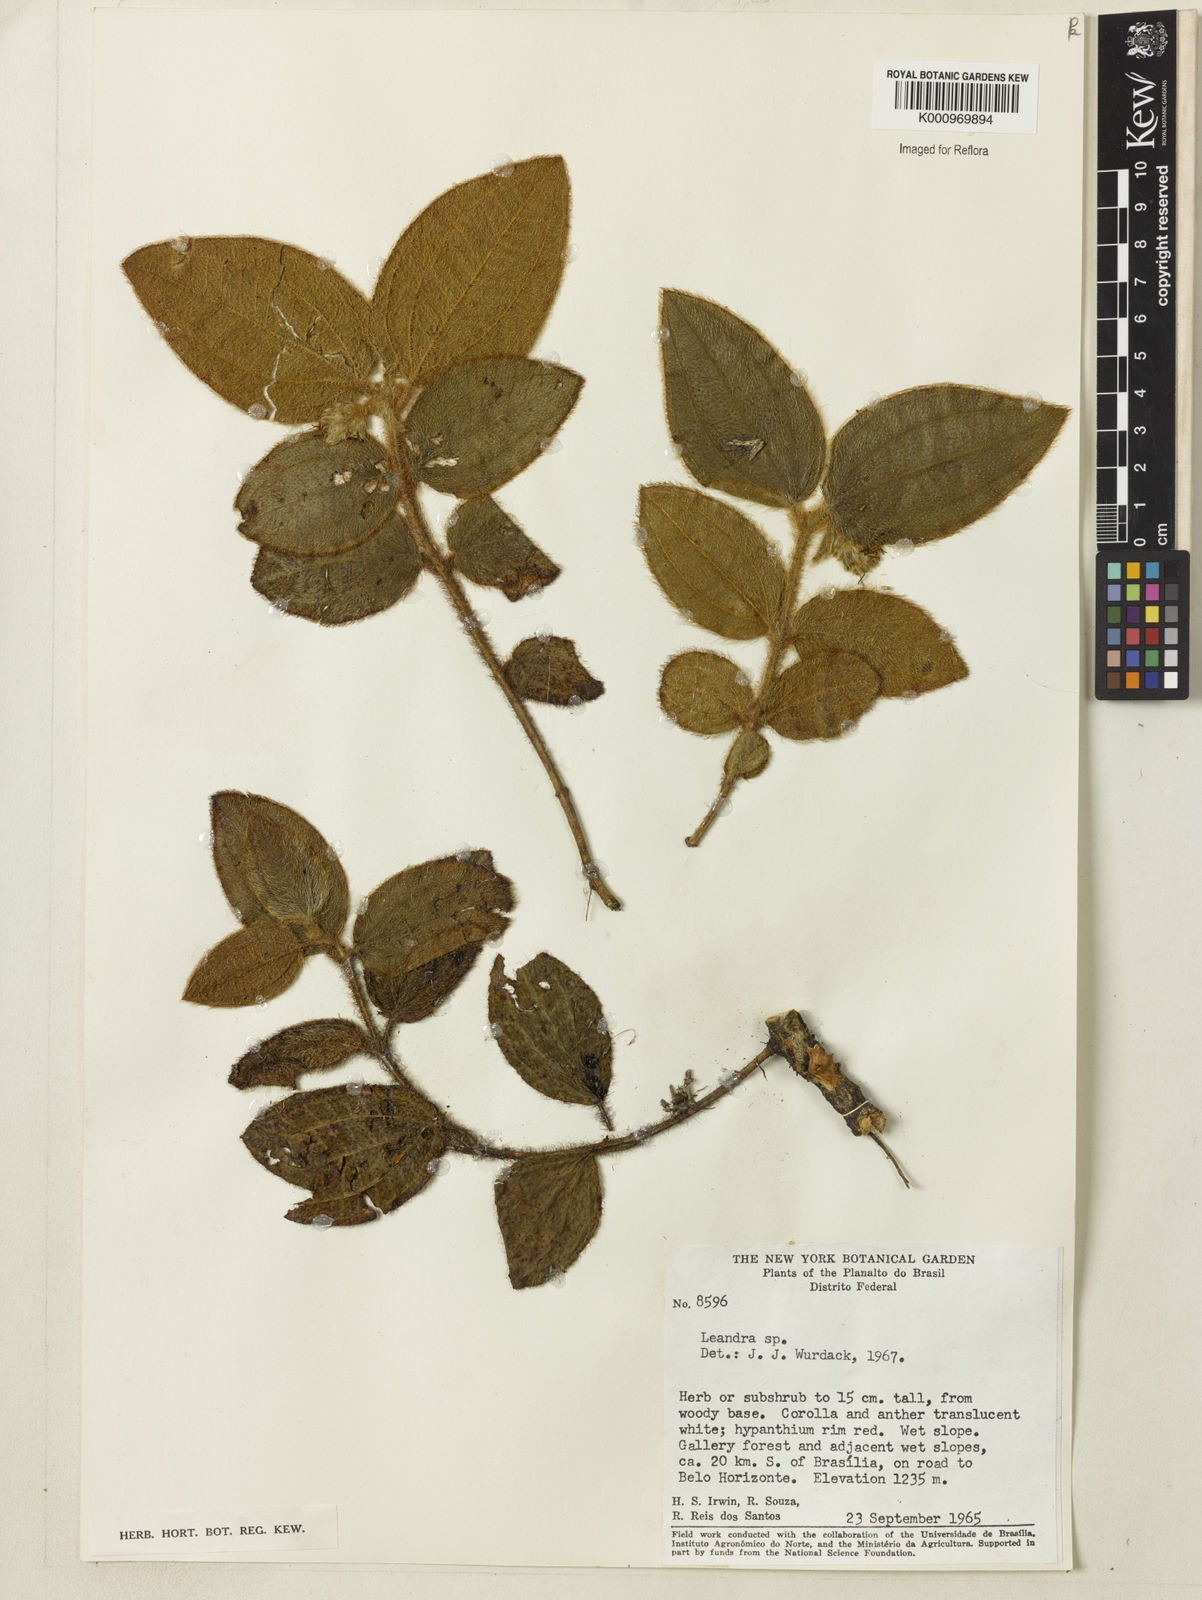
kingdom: Plantae
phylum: Tracheophyta
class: Magnoliopsida
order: Myrtales
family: Melastomataceae
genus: Miconia
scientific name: Miconia
